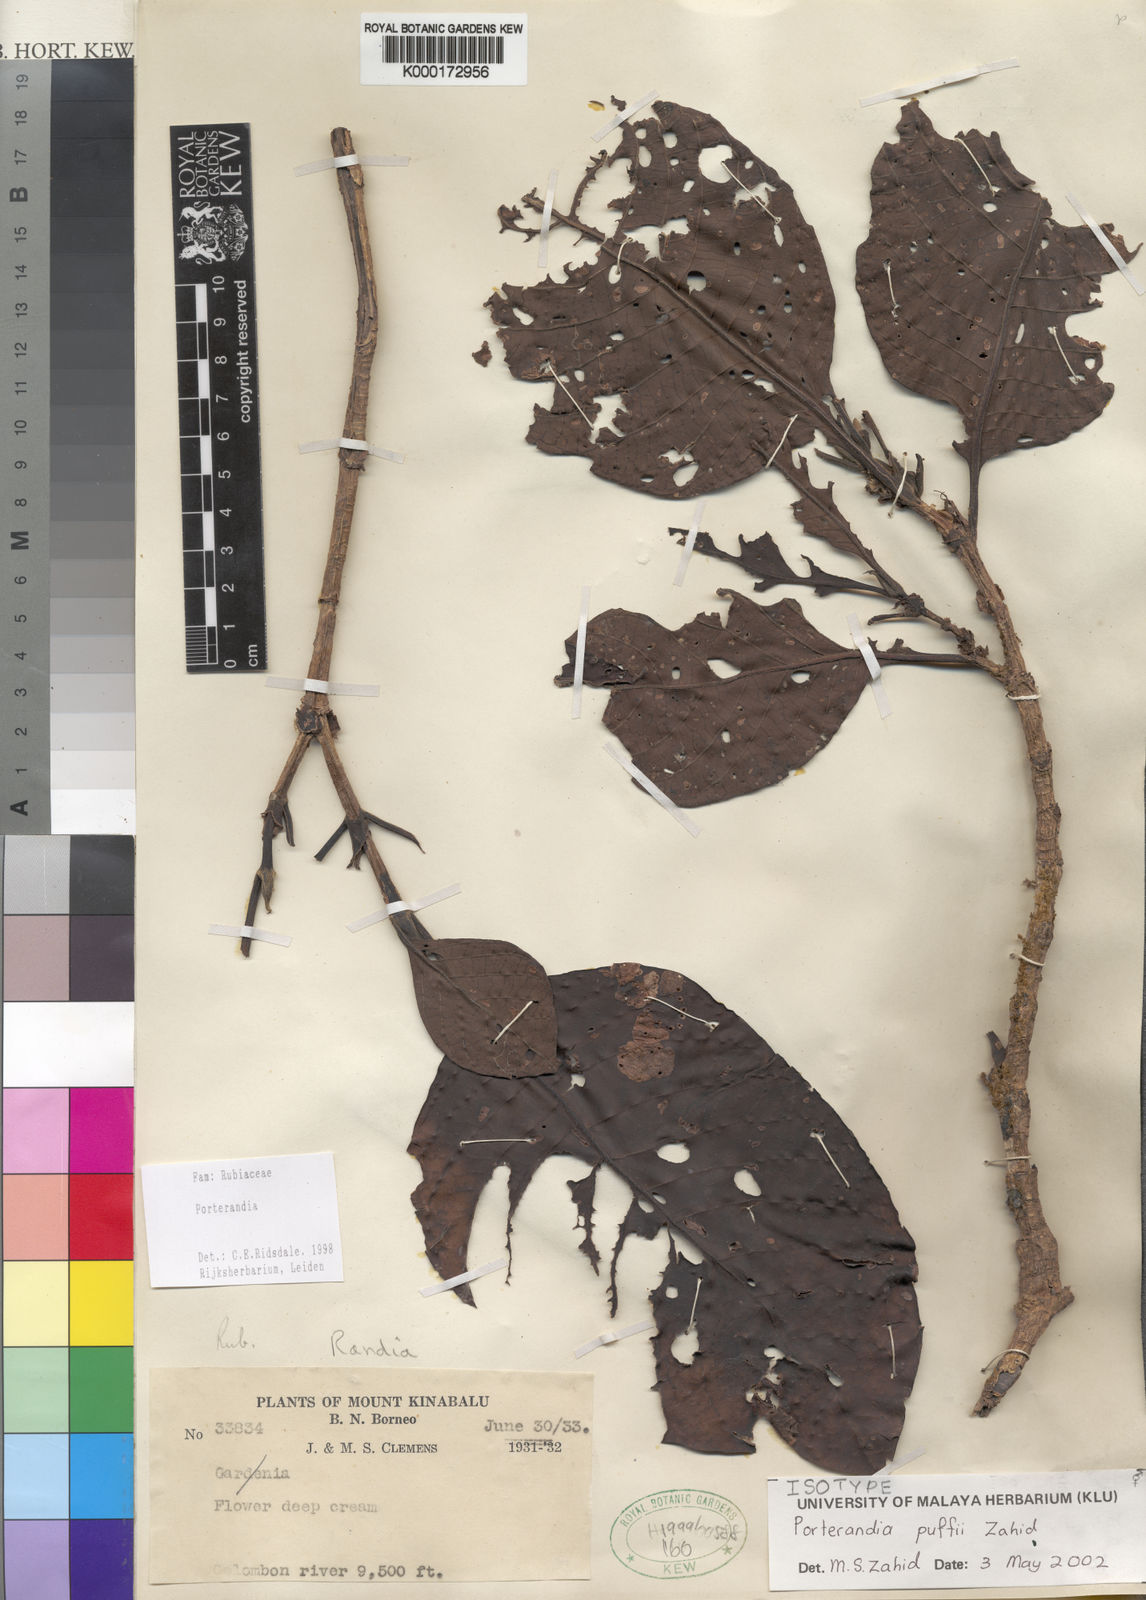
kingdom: Plantae
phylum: Tracheophyta
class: Magnoliopsida
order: Gentianales
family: Rubiaceae
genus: Porterandia
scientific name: Porterandia puffii
